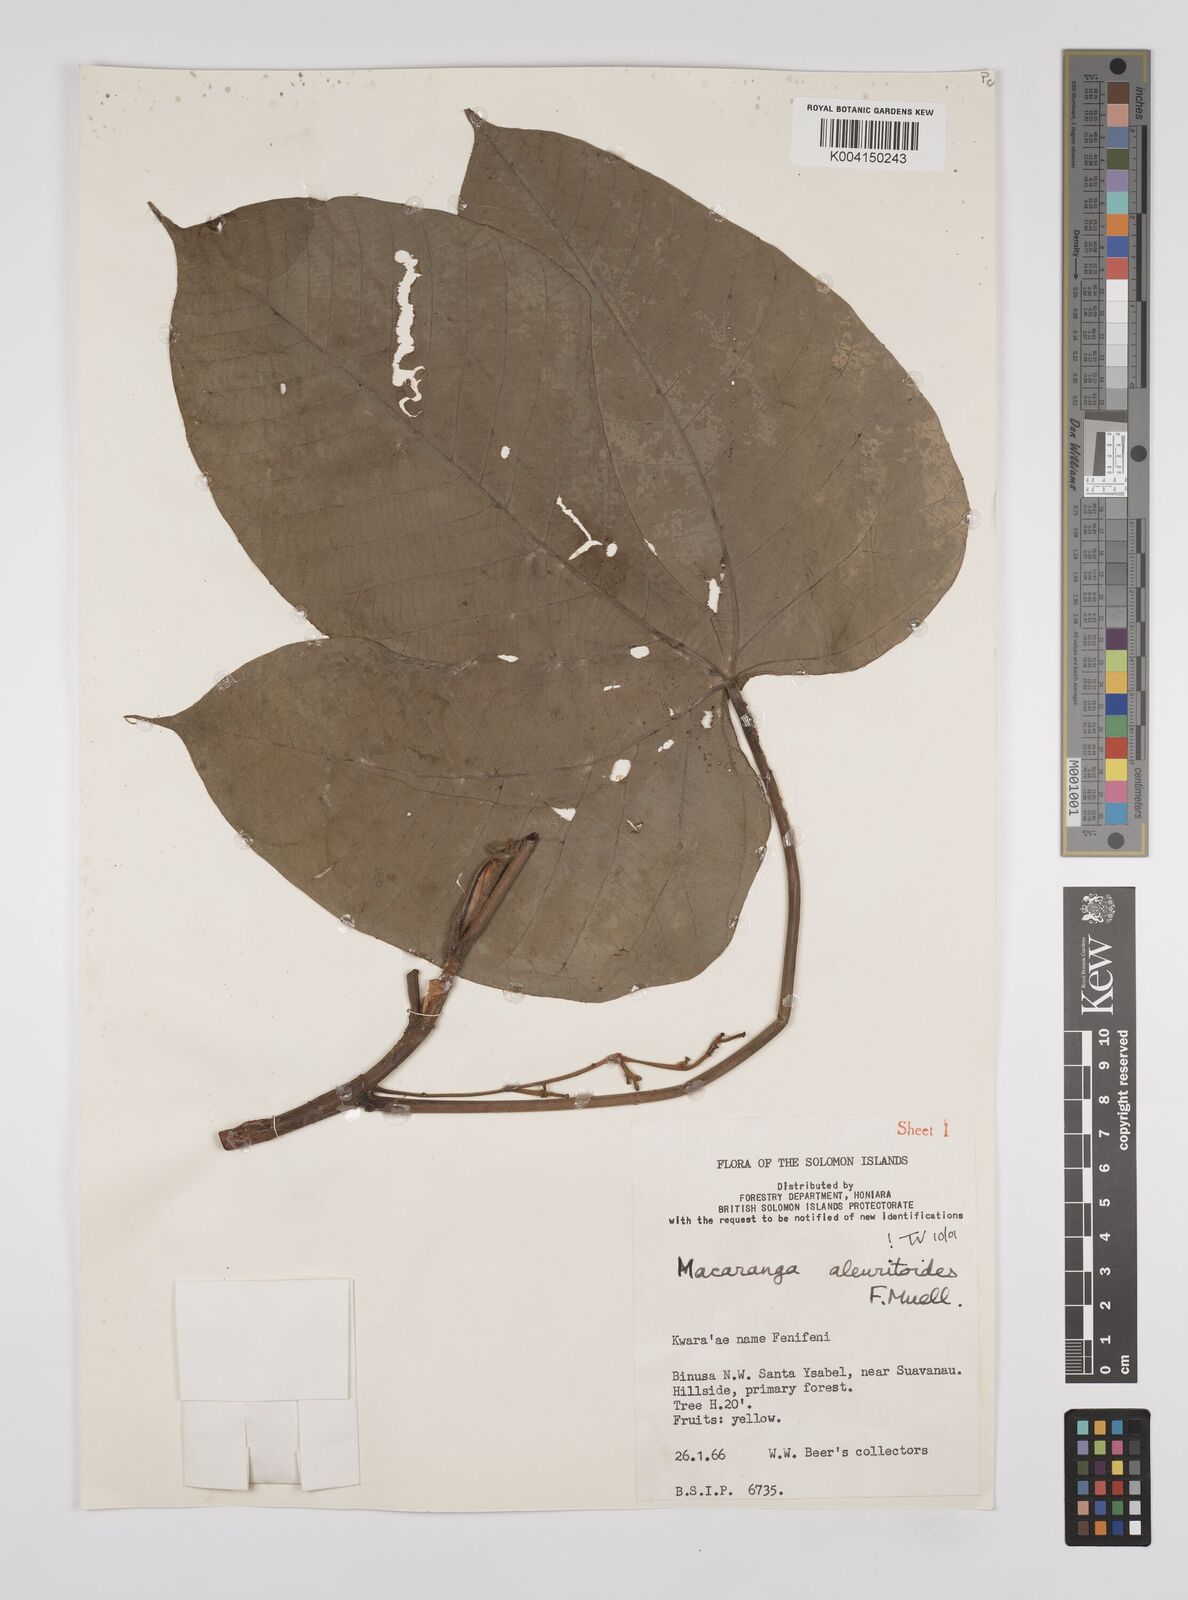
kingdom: Plantae
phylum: Tracheophyta
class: Magnoliopsida
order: Malpighiales
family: Euphorbiaceae
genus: Macaranga
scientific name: Macaranga aleuritoides
